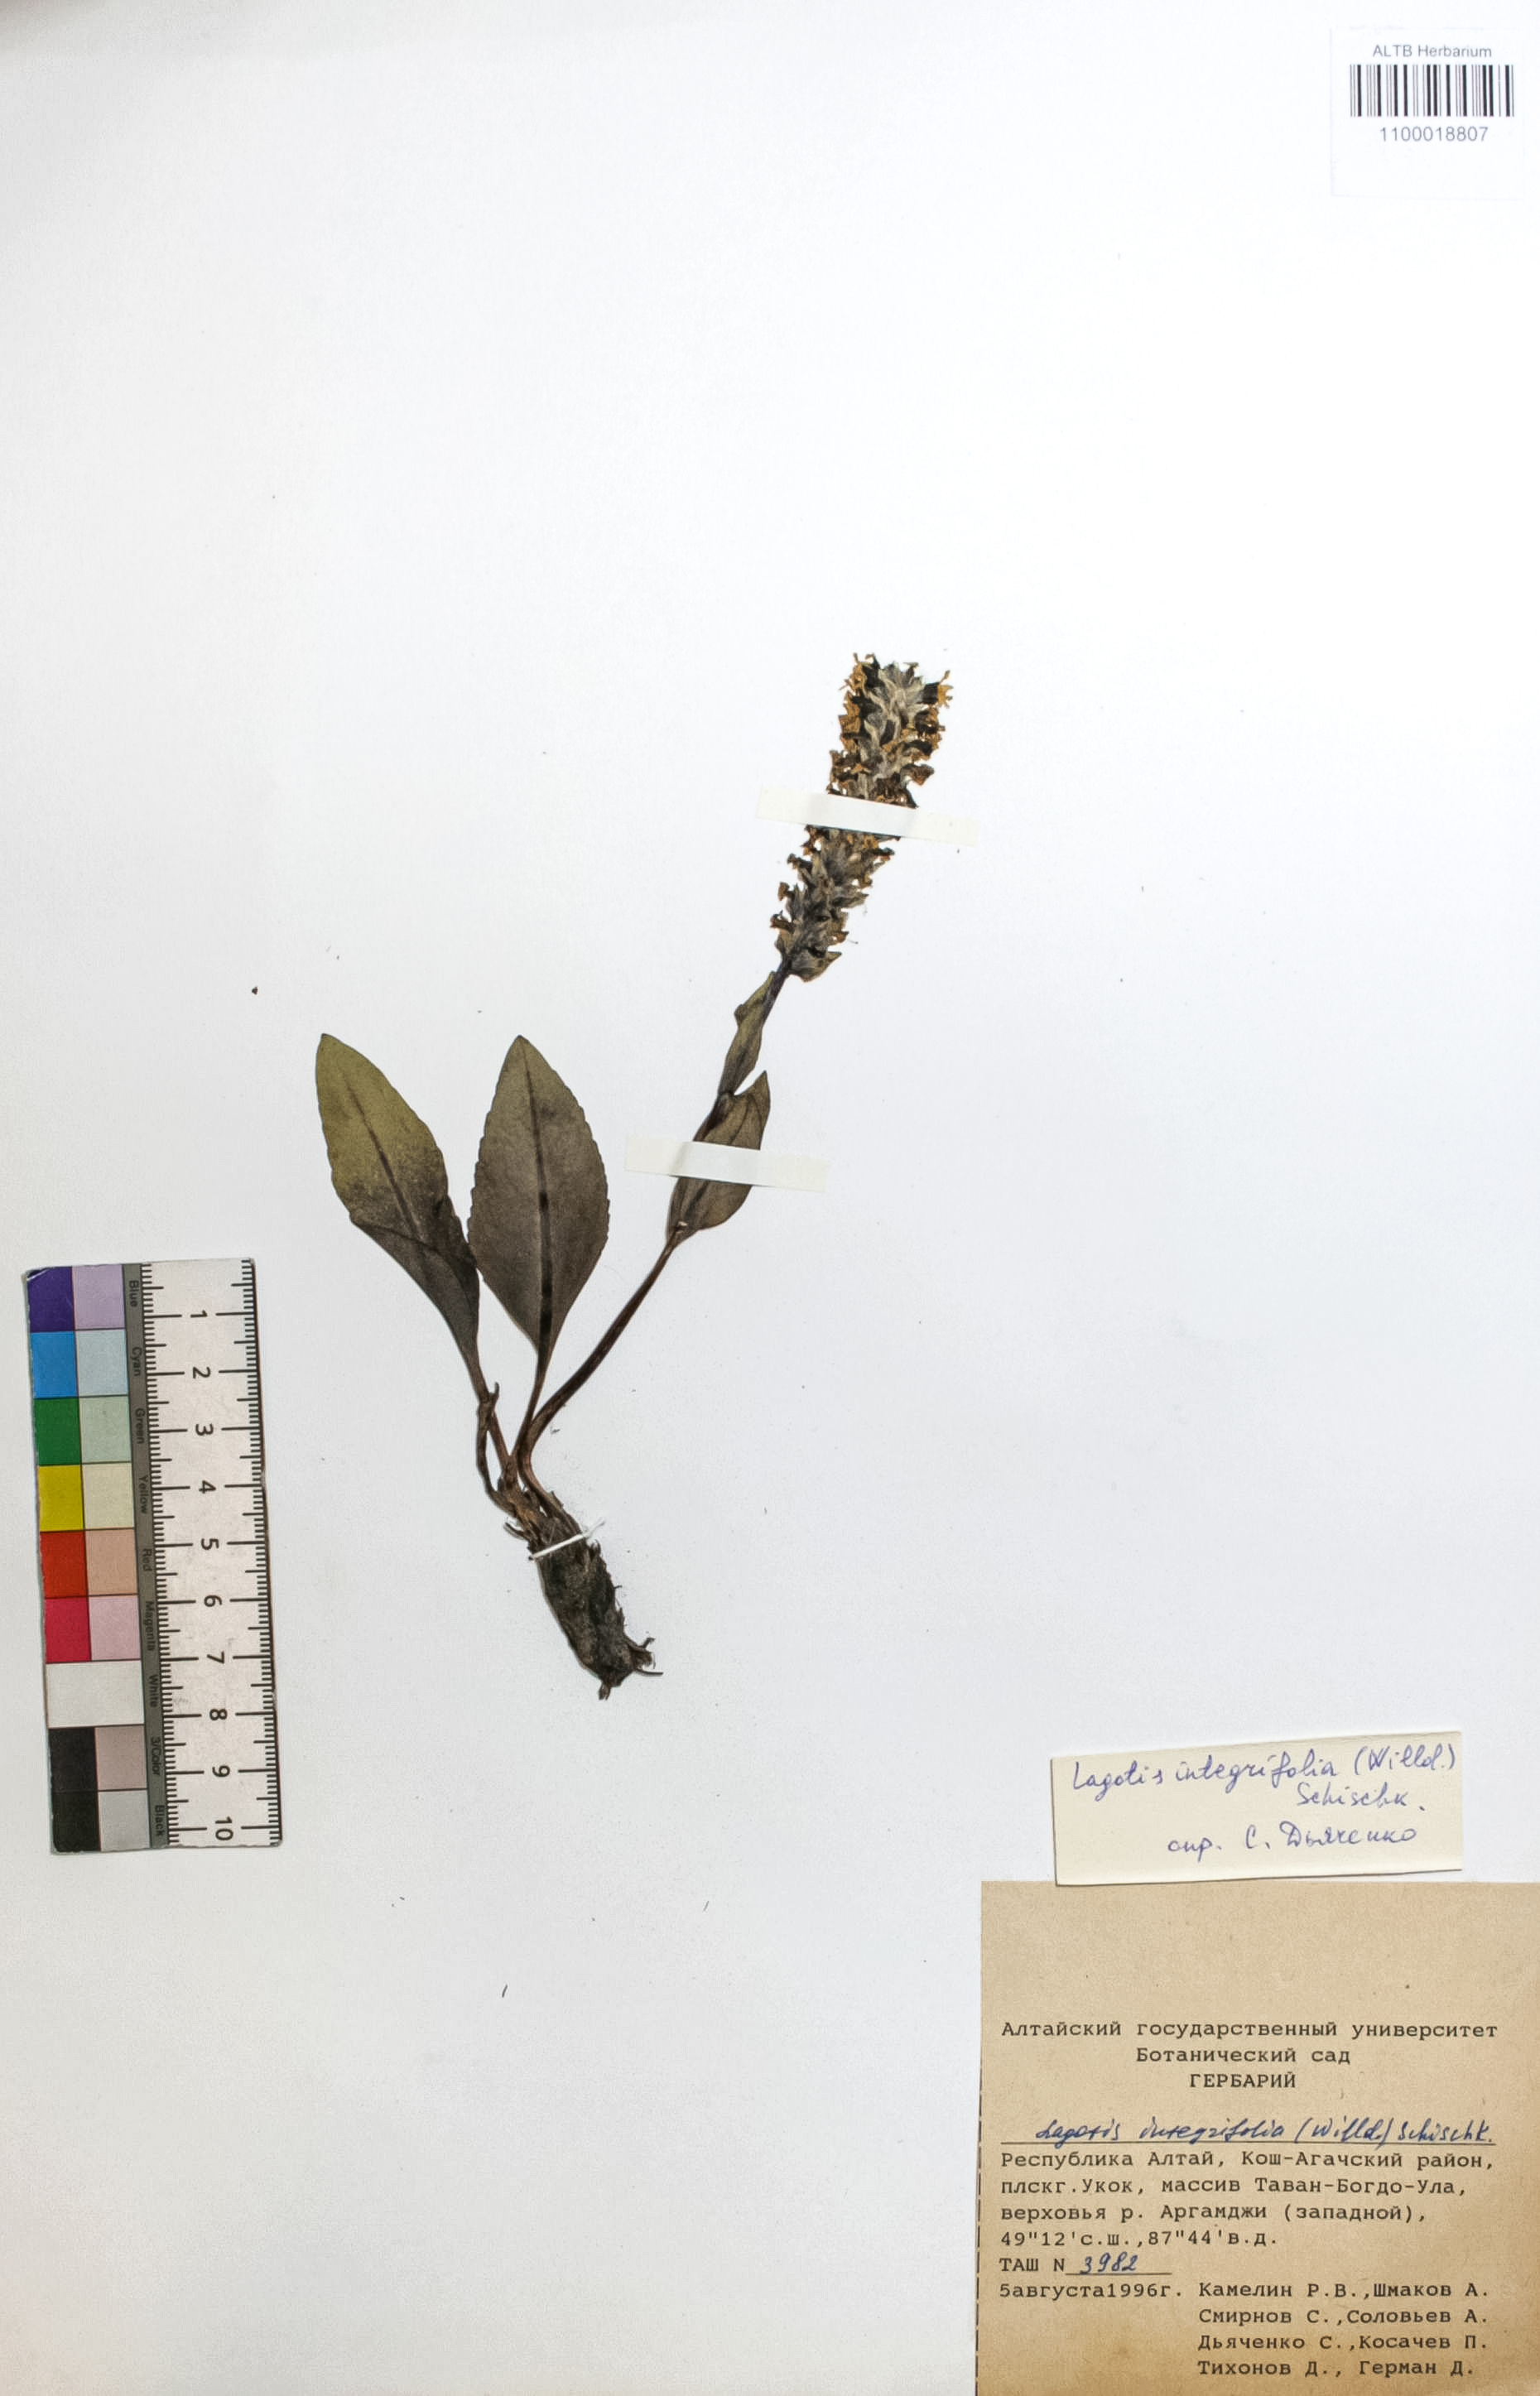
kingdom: Plantae
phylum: Tracheophyta
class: Magnoliopsida
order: Lamiales
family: Plantaginaceae
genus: Lagotis
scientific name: Lagotis integrifolia
